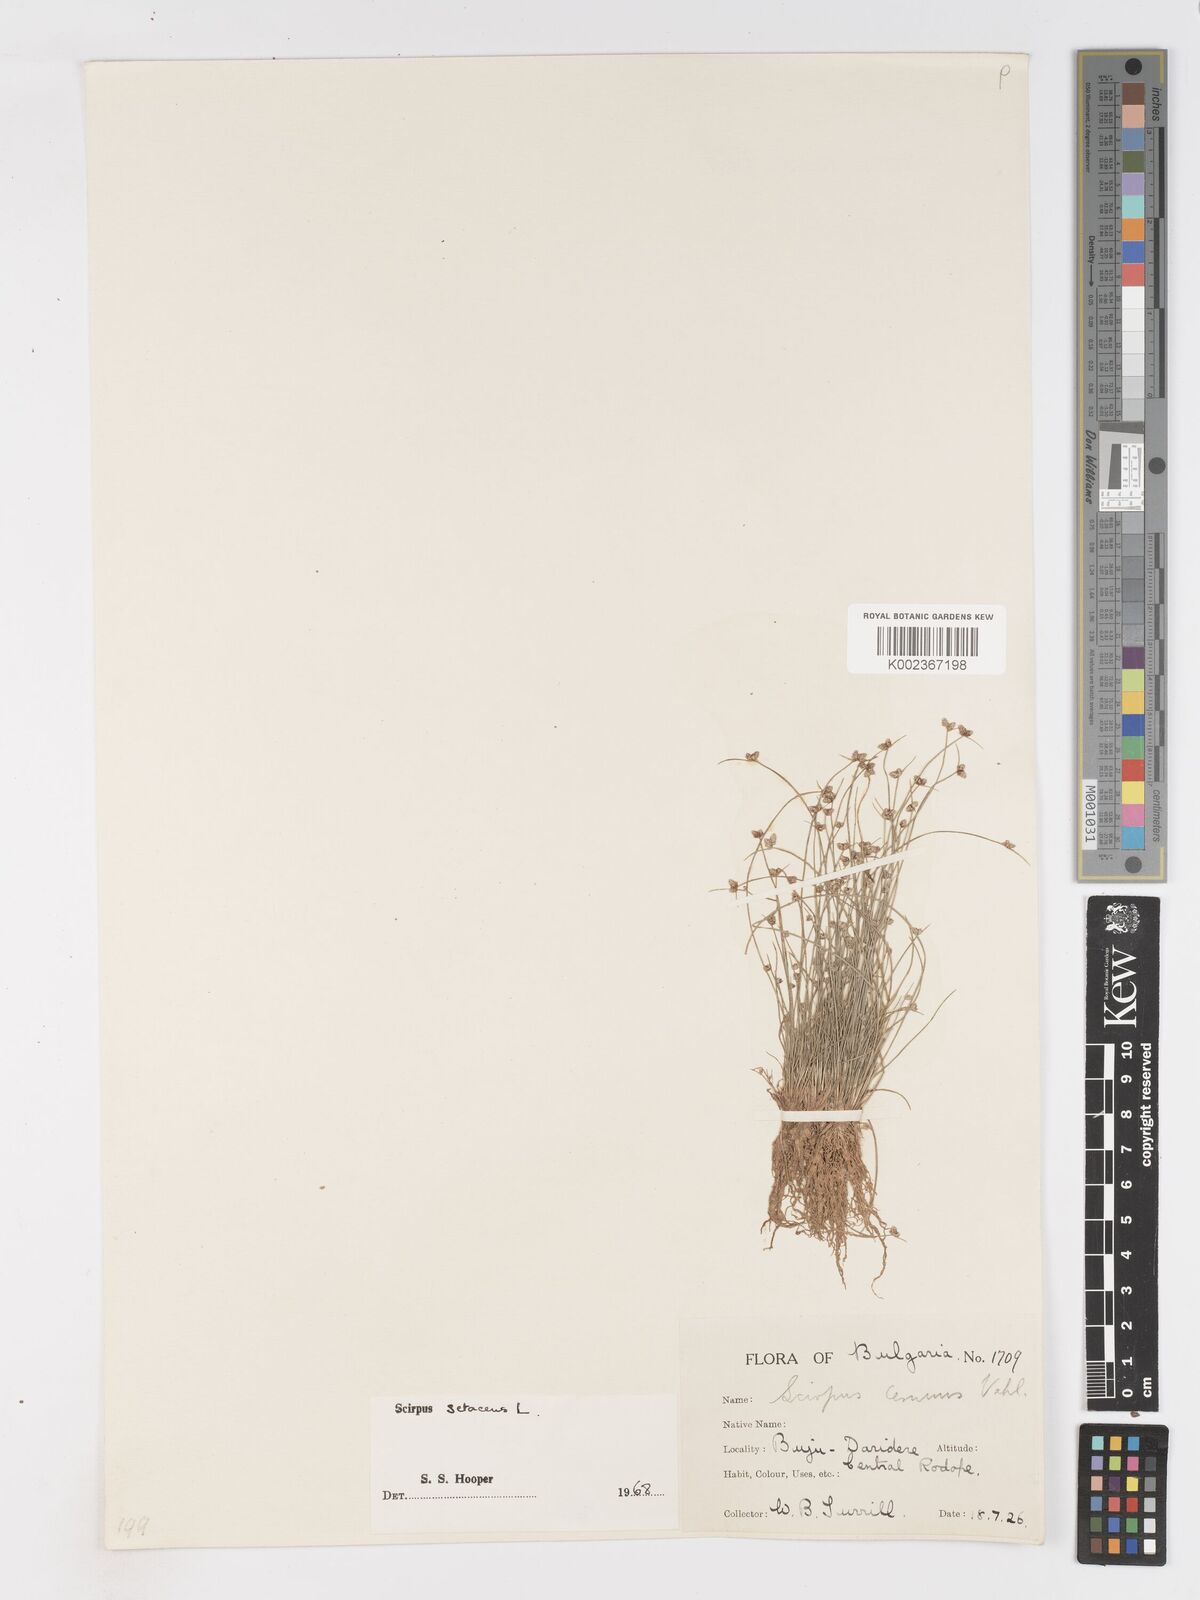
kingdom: Plantae
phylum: Tracheophyta
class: Liliopsida
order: Poales
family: Cyperaceae
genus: Isolepis
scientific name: Isolepis setacea
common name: Bristle club-rush
